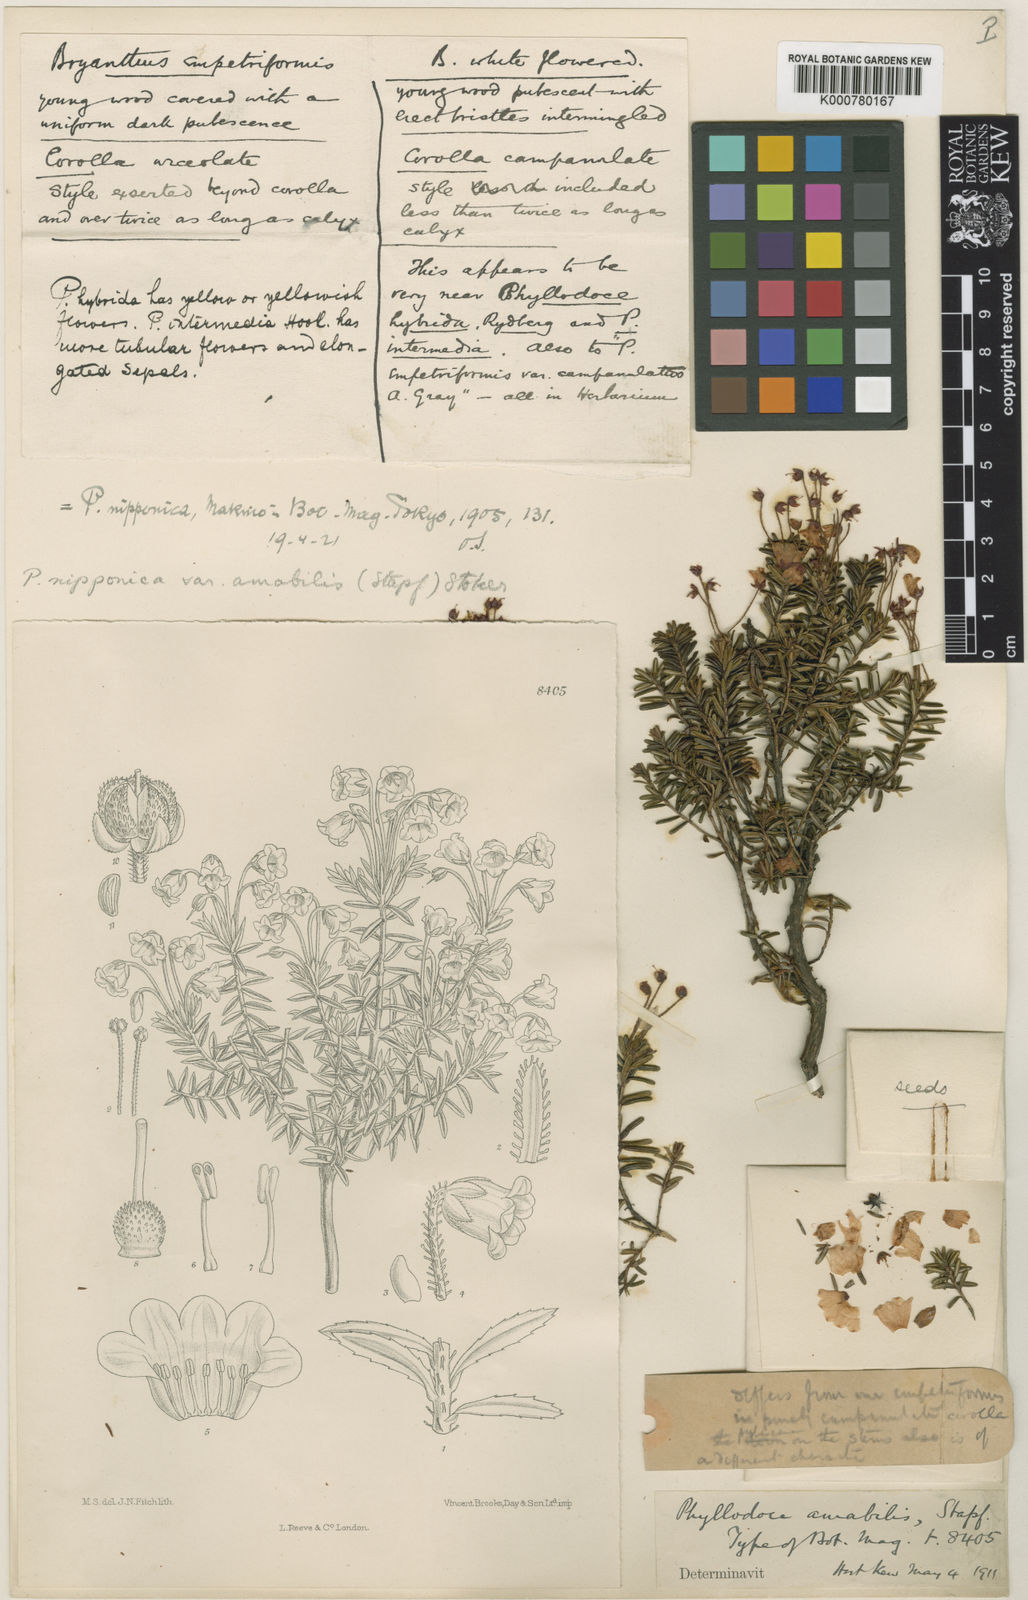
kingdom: Plantae
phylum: Tracheophyta
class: Magnoliopsida
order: Ericales
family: Ericaceae
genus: Phyllodoce
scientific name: Phyllodoce nipponica
